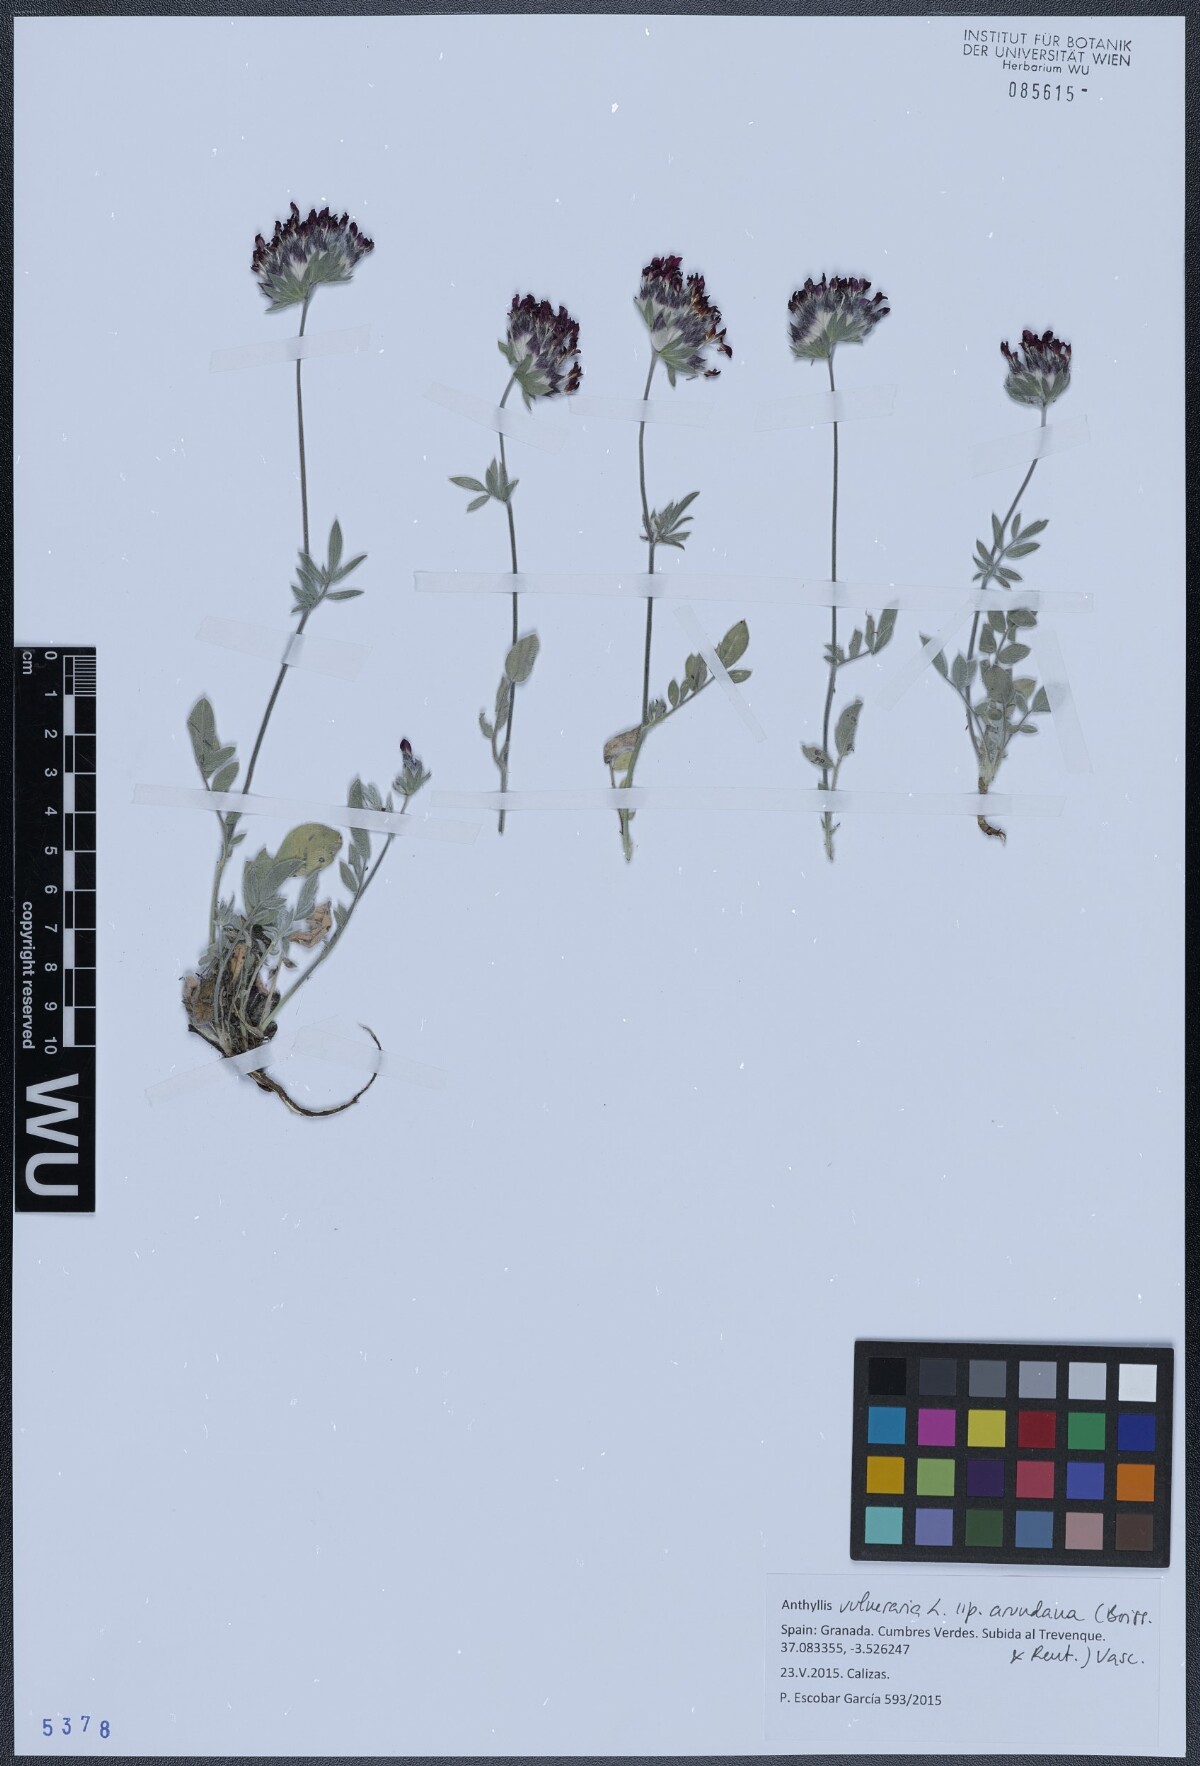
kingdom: Plantae
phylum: Tracheophyta
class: Magnoliopsida
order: Fabales
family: Fabaceae
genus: Anthyllis
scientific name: Anthyllis vulneraria
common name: Kidney vetch
